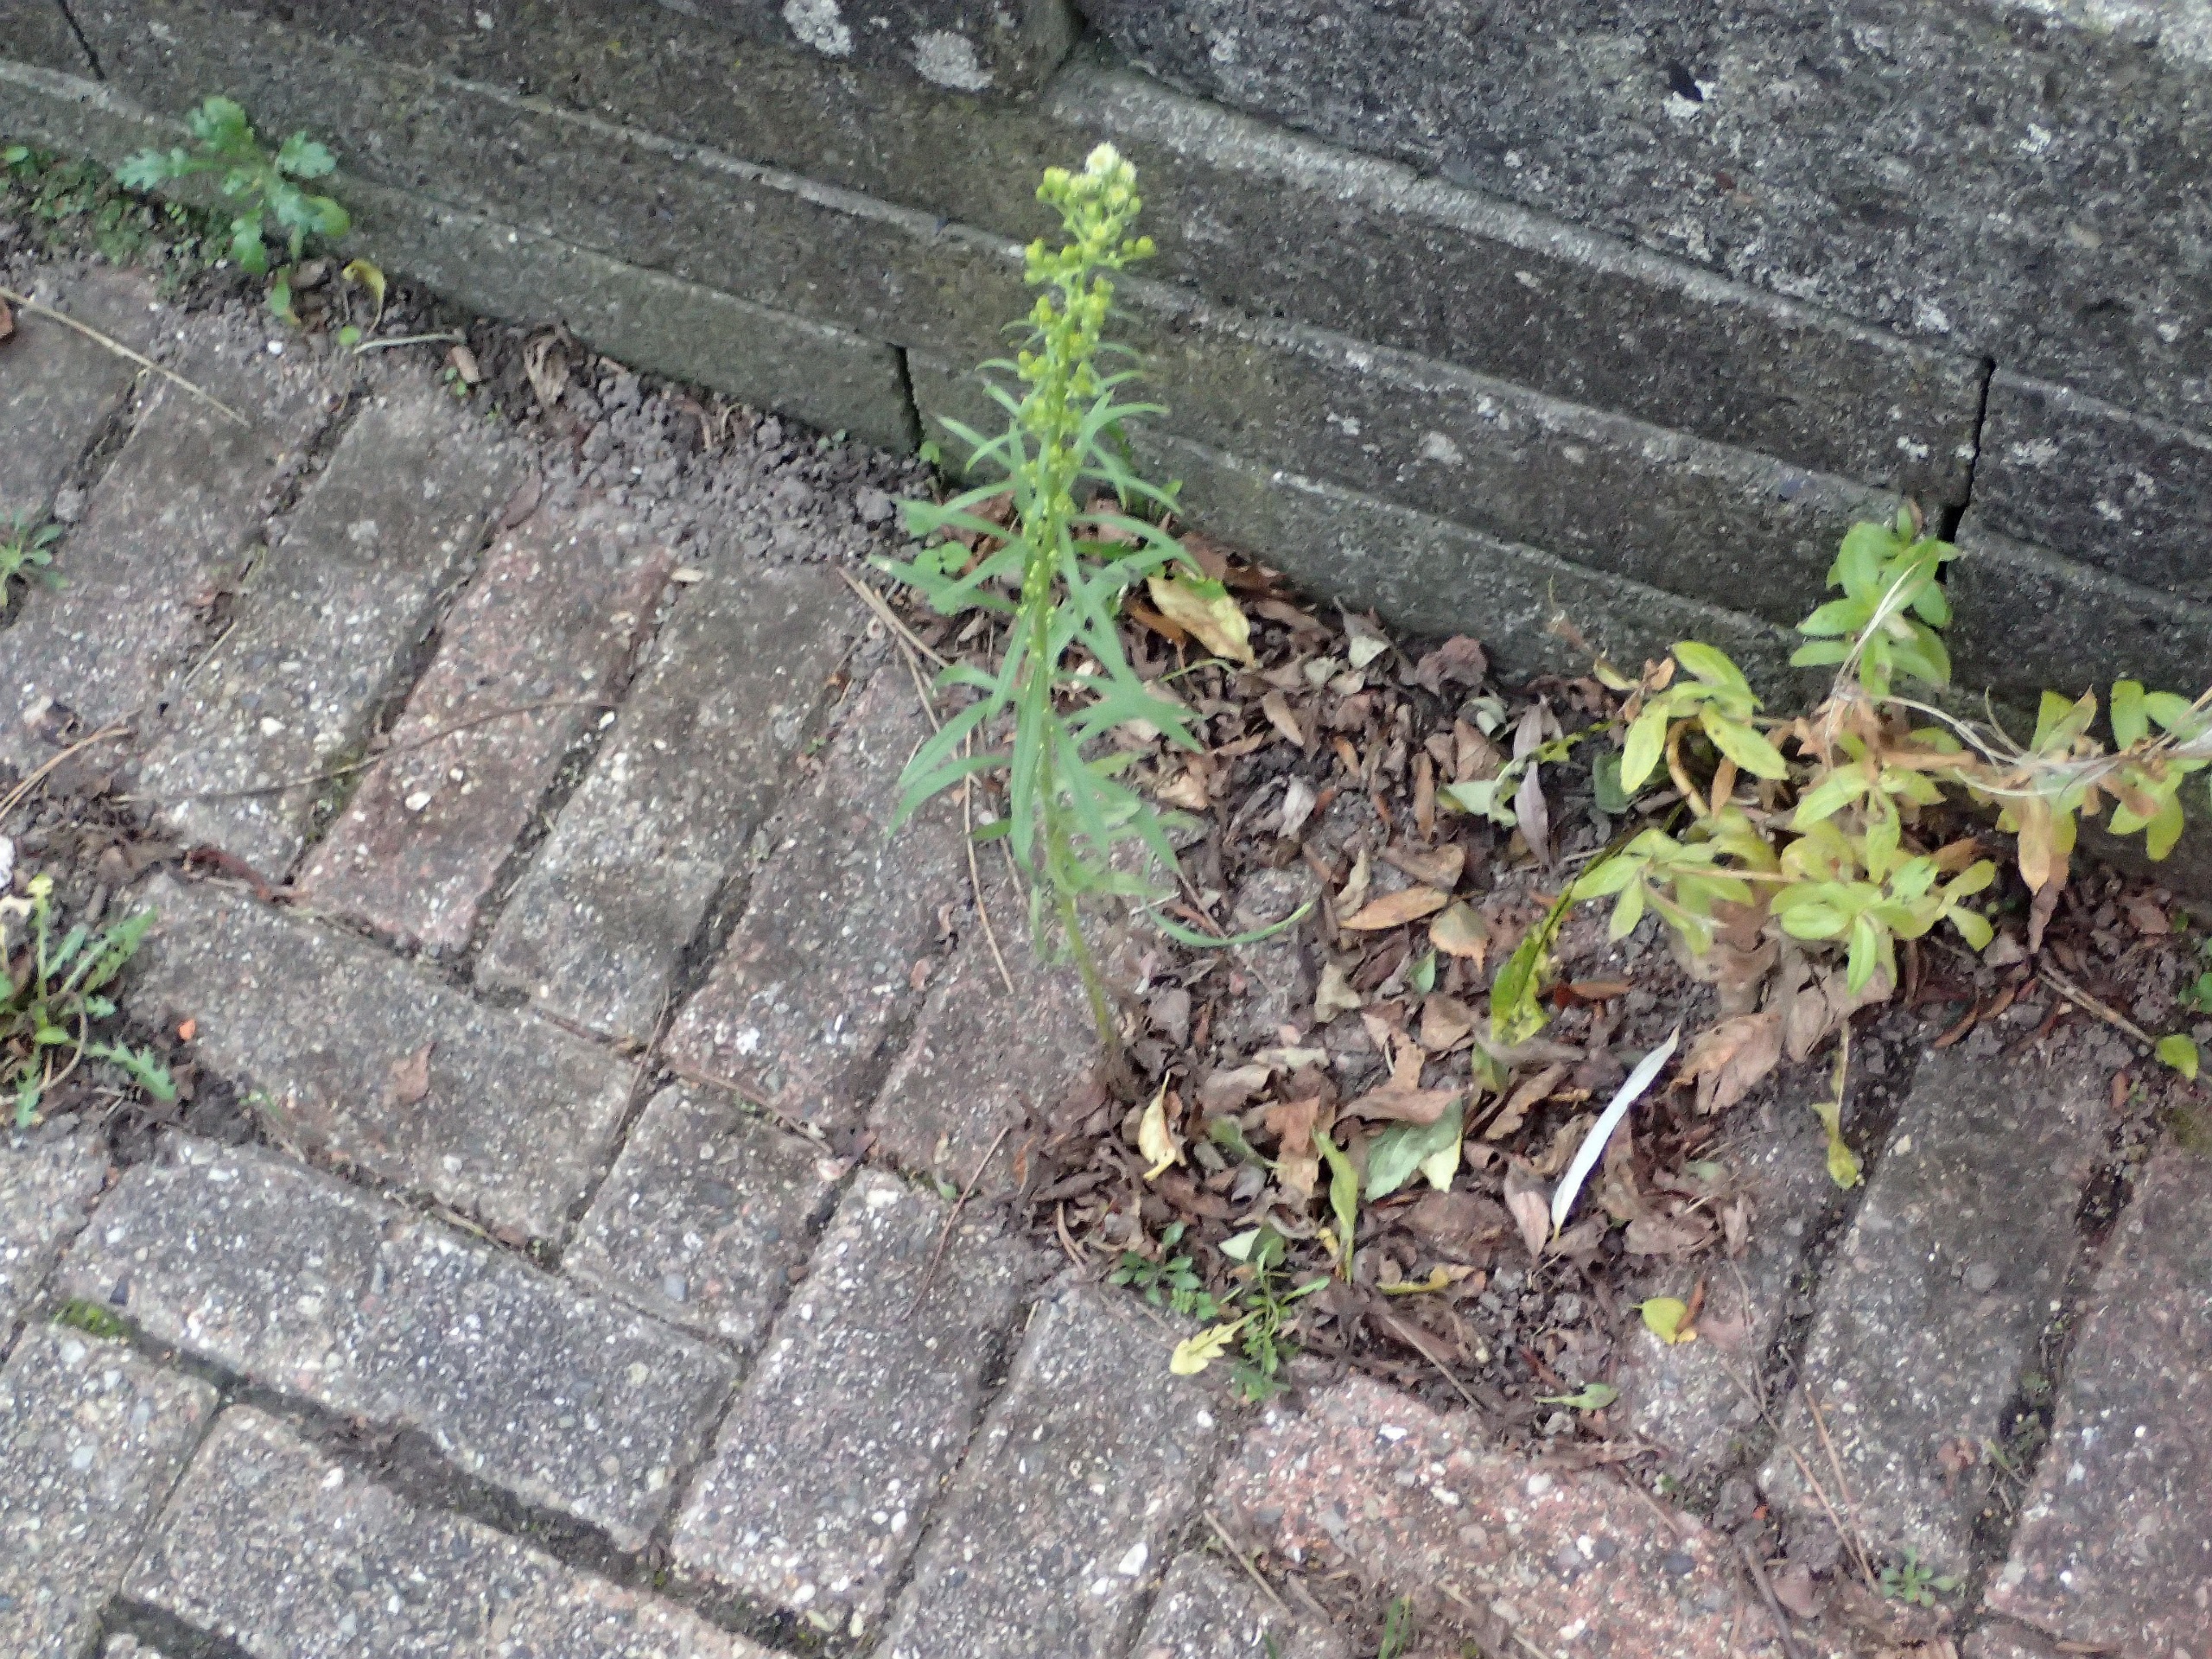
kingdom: Plantae
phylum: Tracheophyta
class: Magnoliopsida
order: Asterales
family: Asteraceae
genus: Erigeron
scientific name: Erigeron canadensis
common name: Kanadisk bakkestjerne
